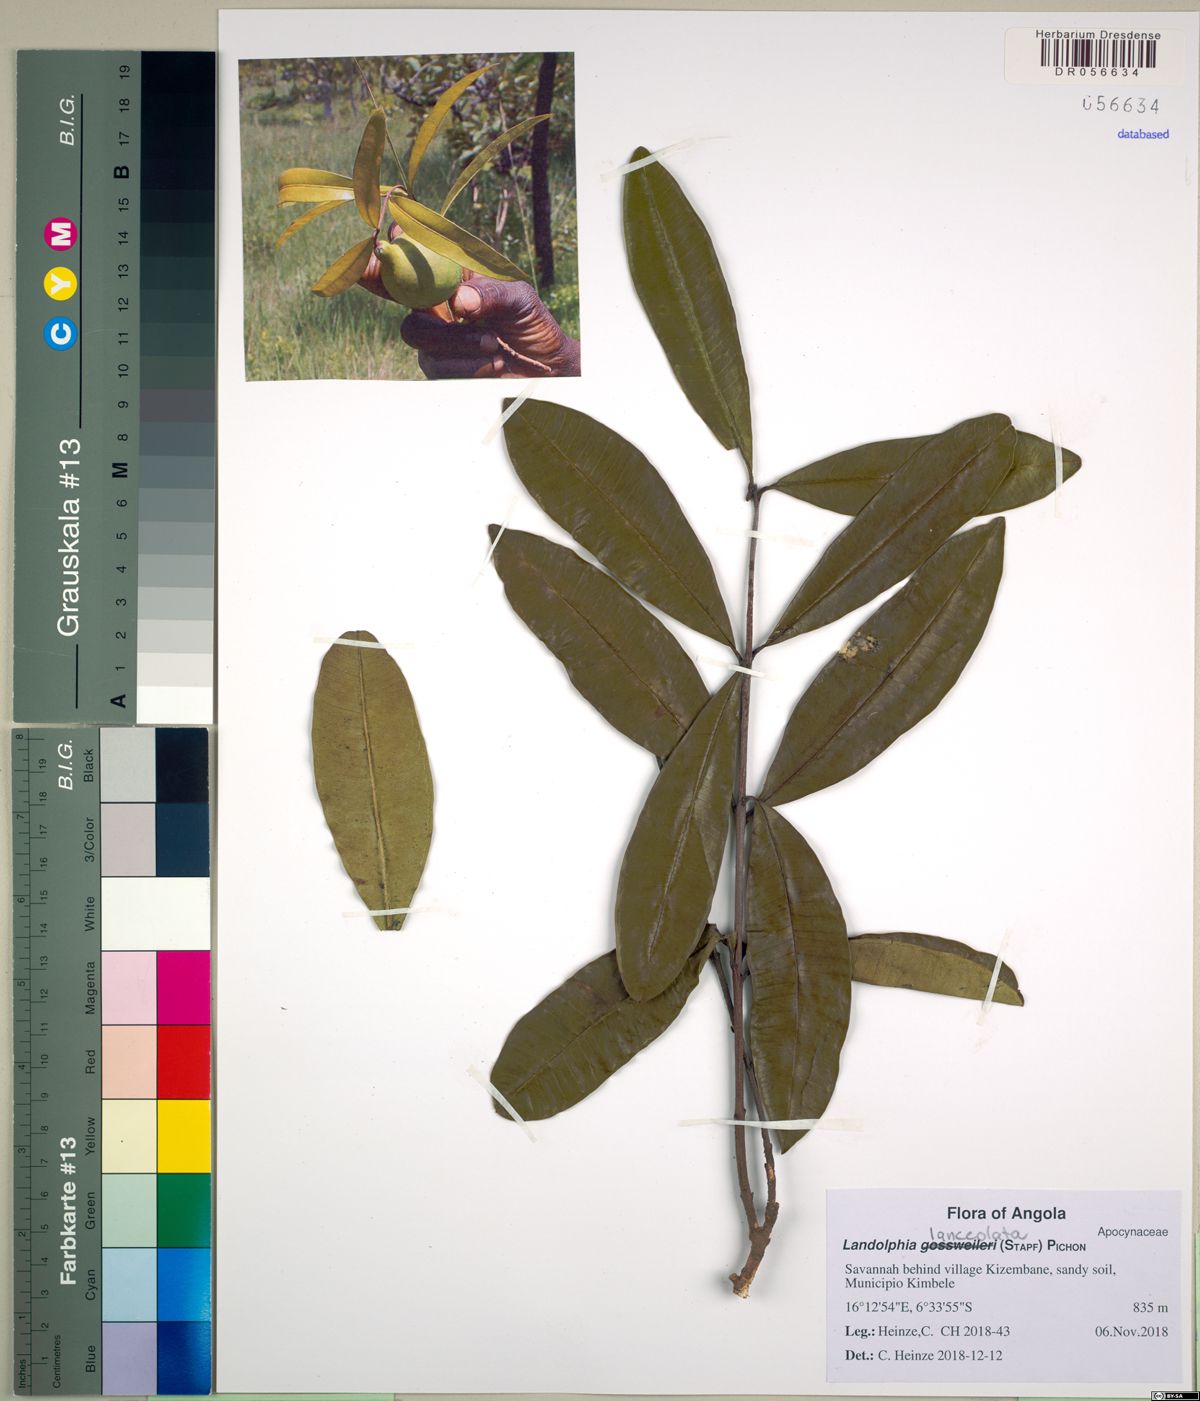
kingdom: Plantae
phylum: Tracheophyta
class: Magnoliopsida
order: Gentianales
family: Apocynaceae
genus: Landolphia
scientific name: Landolphia lanceolata
